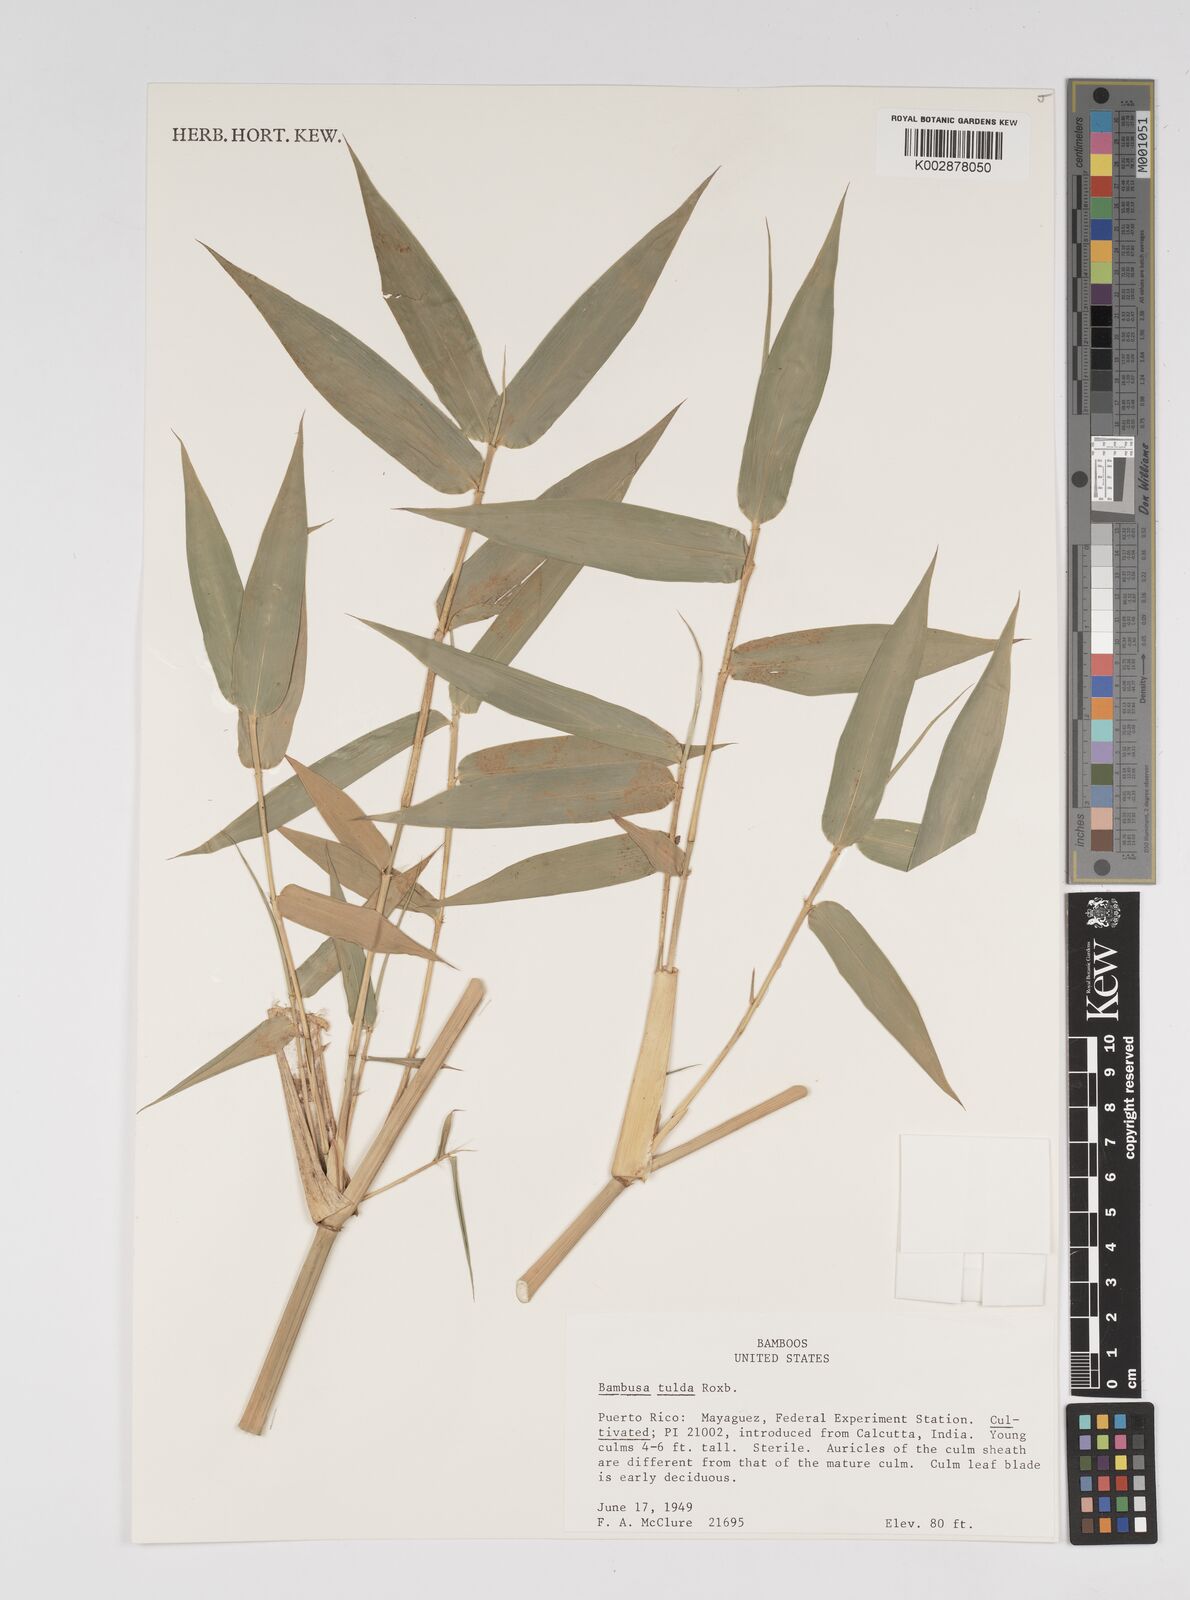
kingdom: Plantae
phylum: Tracheophyta
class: Liliopsida
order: Poales
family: Poaceae
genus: Bambusa
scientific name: Bambusa tulda
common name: Bengal bamboo
